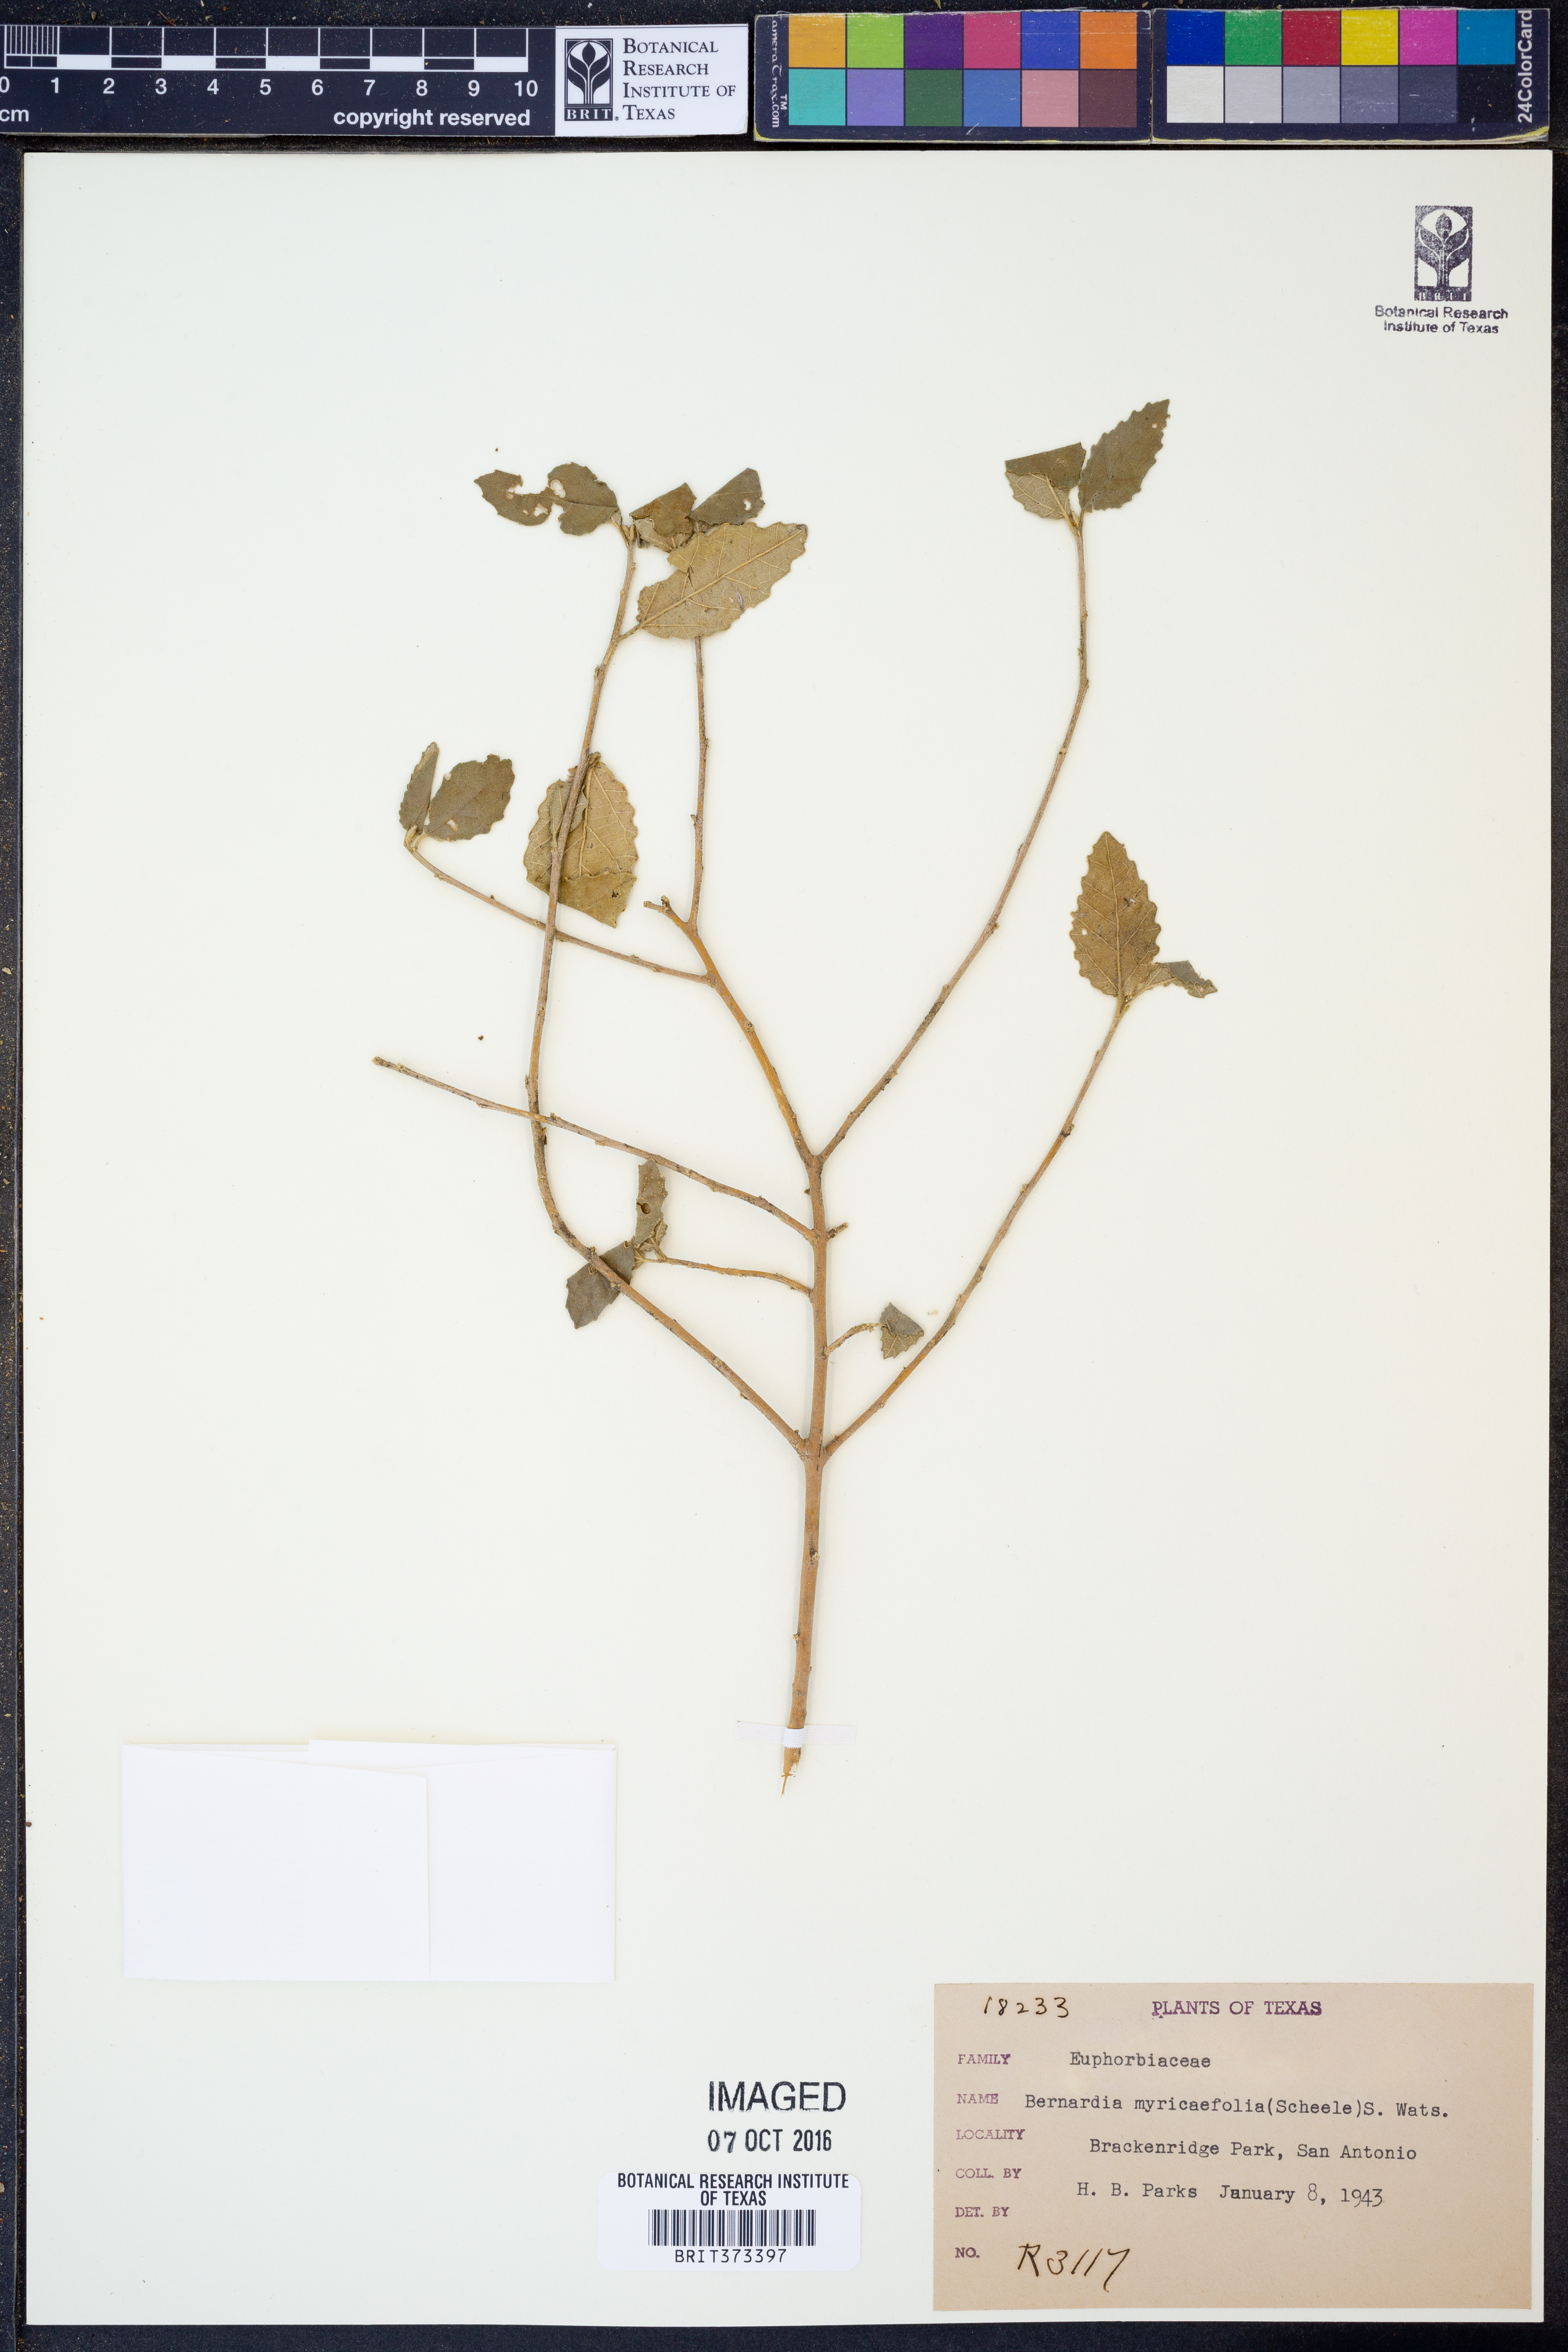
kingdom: Plantae
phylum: Tracheophyta
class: Magnoliopsida
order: Malpighiales
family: Euphorbiaceae
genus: Bernardia
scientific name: Bernardia myricifolia
